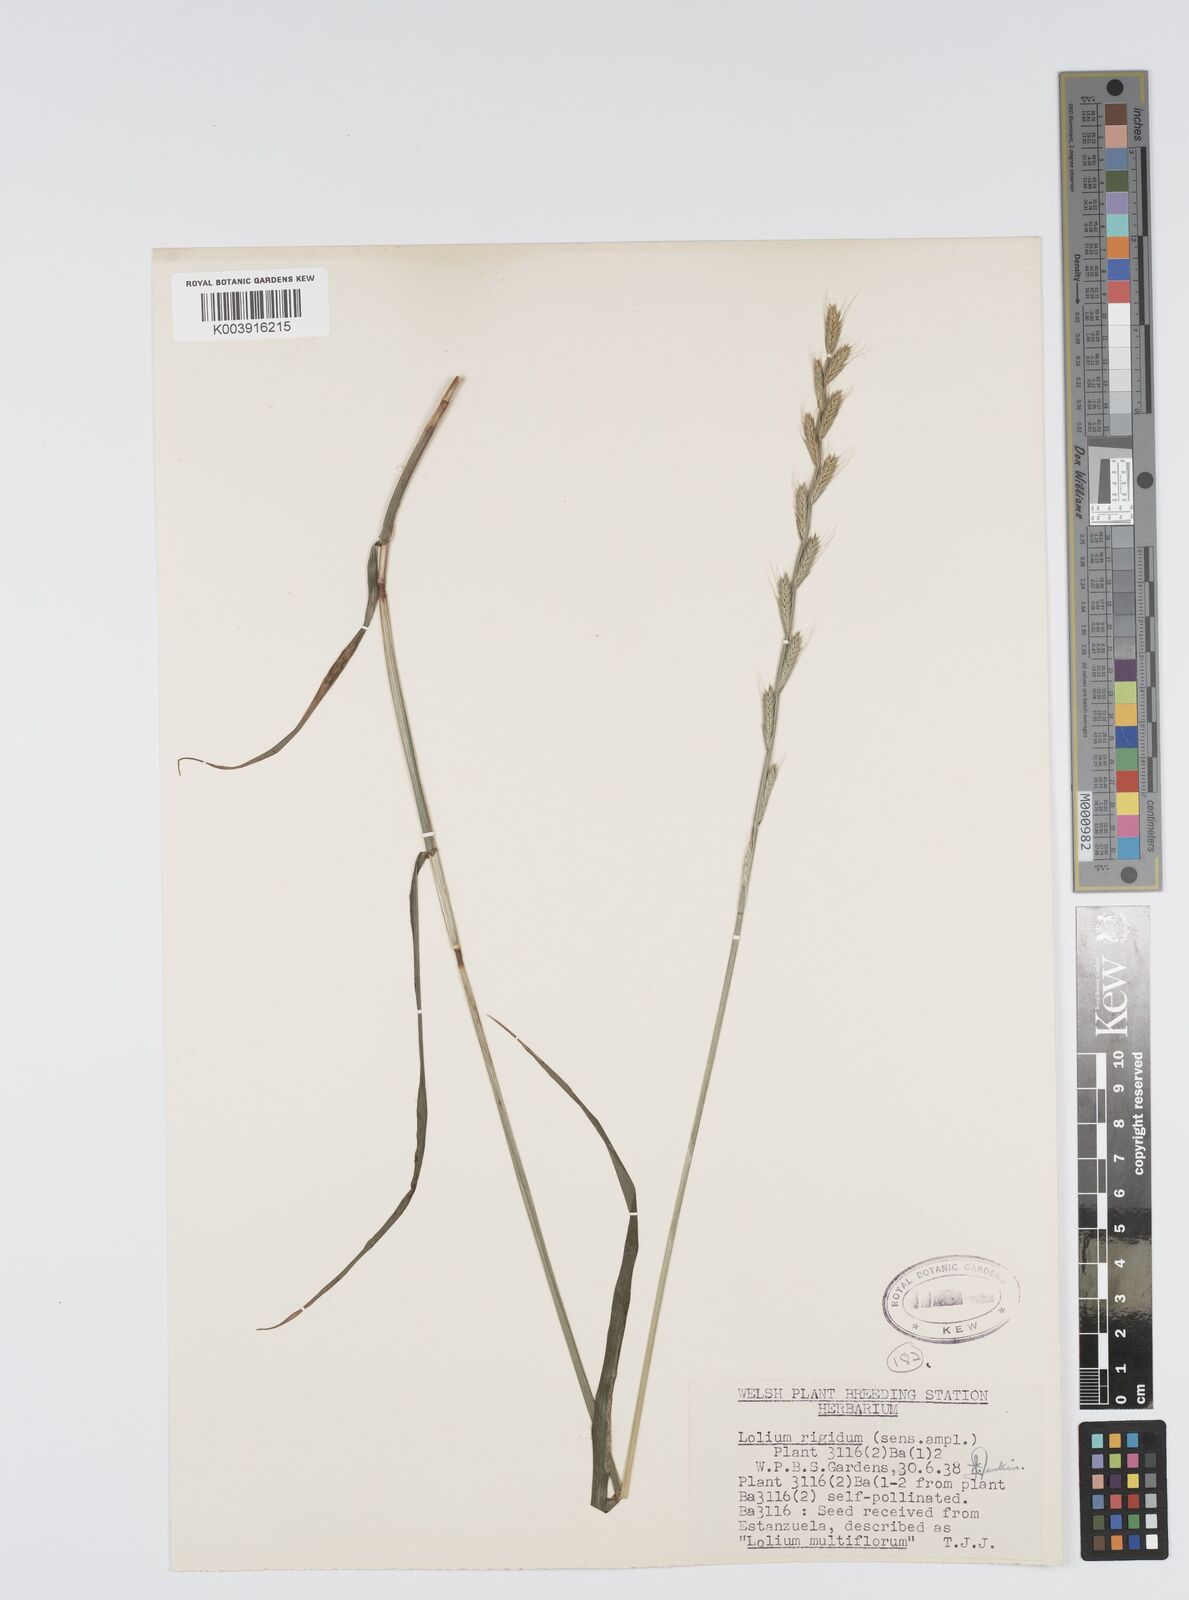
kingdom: Plantae
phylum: Tracheophyta
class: Liliopsida
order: Poales
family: Poaceae
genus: Lolium
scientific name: Lolium rigidum
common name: Wimmera ryegrass
